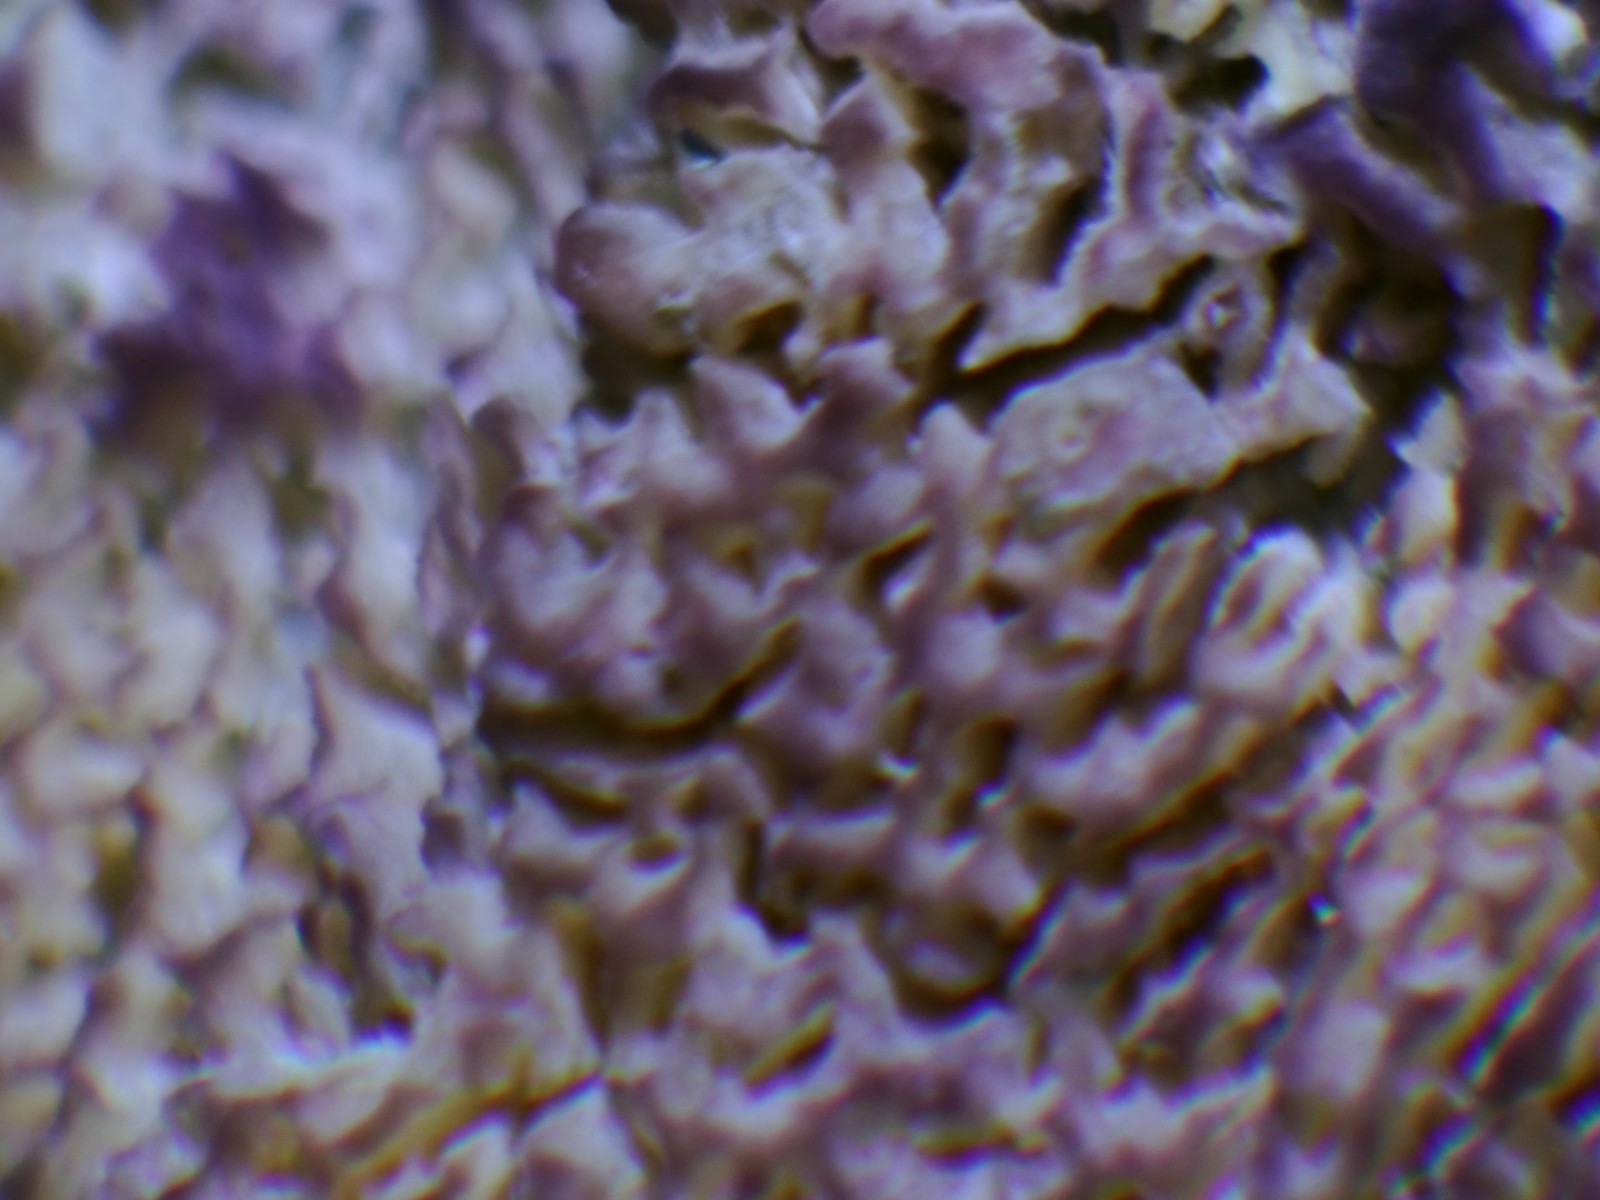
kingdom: Fungi
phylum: Basidiomycota
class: Agaricomycetes
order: Polyporales
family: Polyporaceae
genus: Trichaptum
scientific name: Trichaptum
